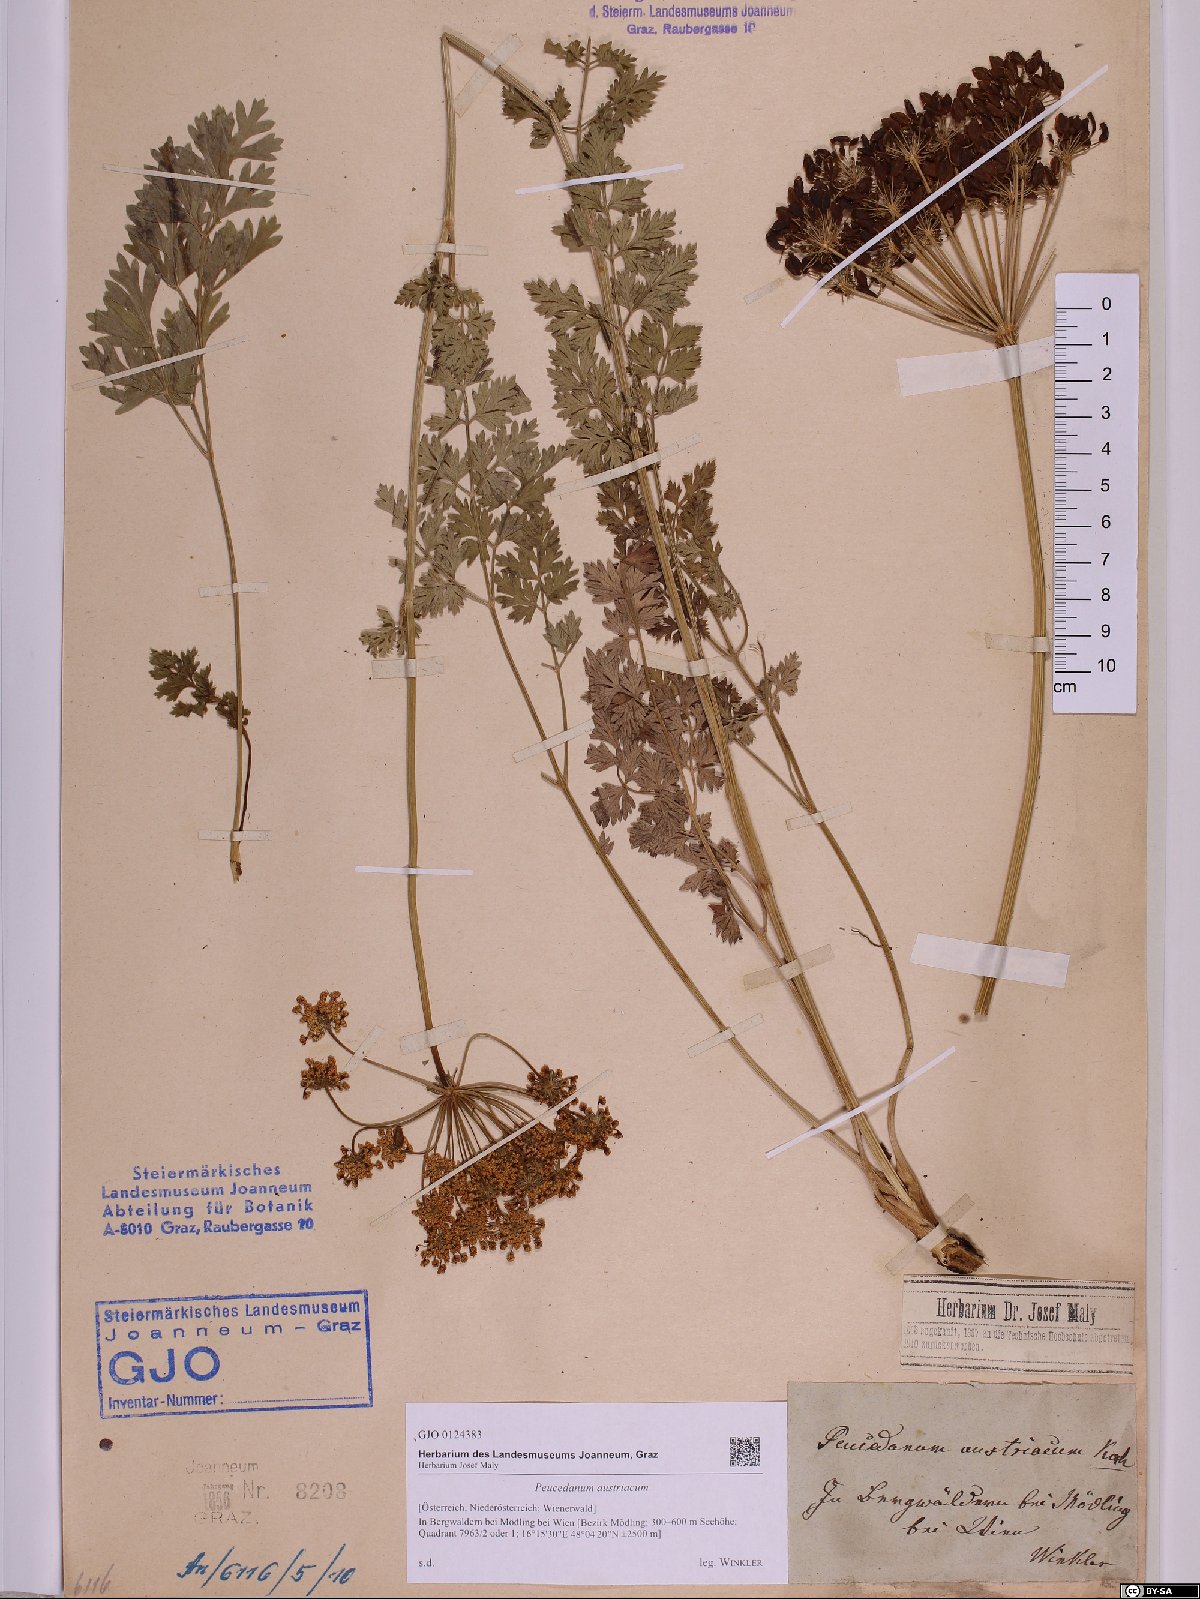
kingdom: Plantae
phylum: Tracheophyta
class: Magnoliopsida
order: Apiales
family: Apiaceae
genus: Peucedanum
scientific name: Peucedanum austriacum
